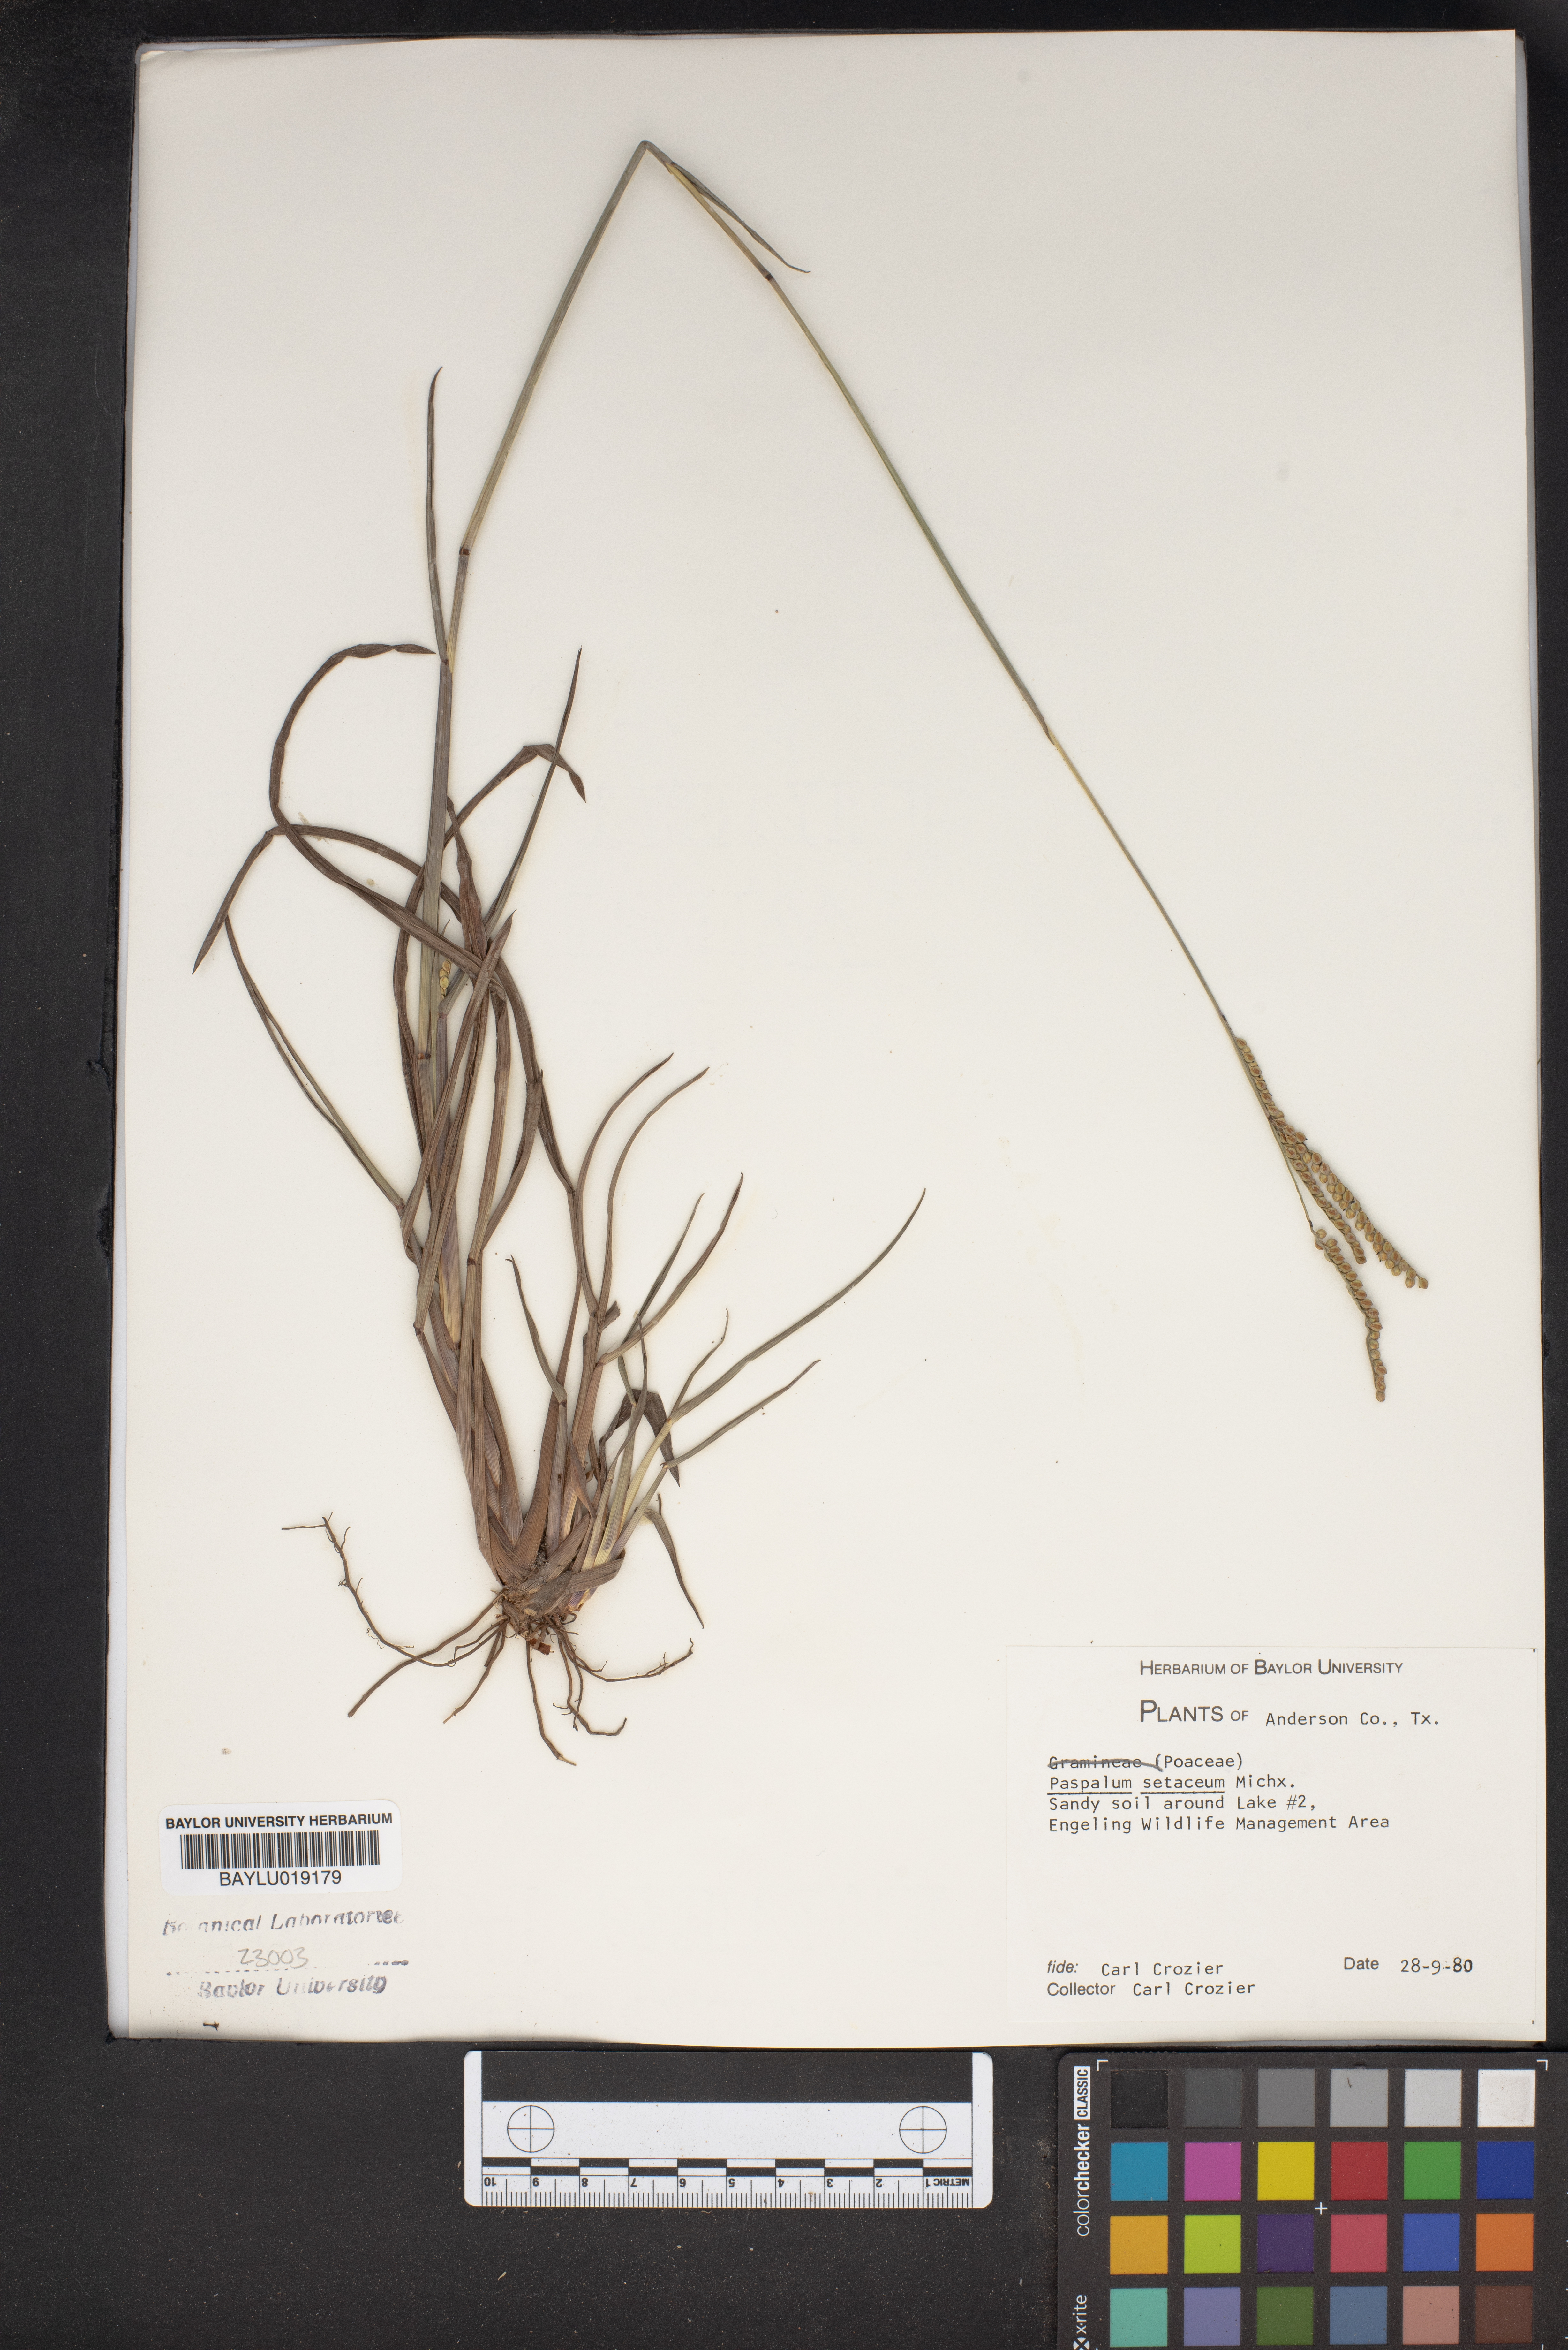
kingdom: Plantae
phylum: Tracheophyta
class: Liliopsida
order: Poales
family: Poaceae
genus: Paspalum
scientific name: Paspalum setaceum
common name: Slender paspalum
